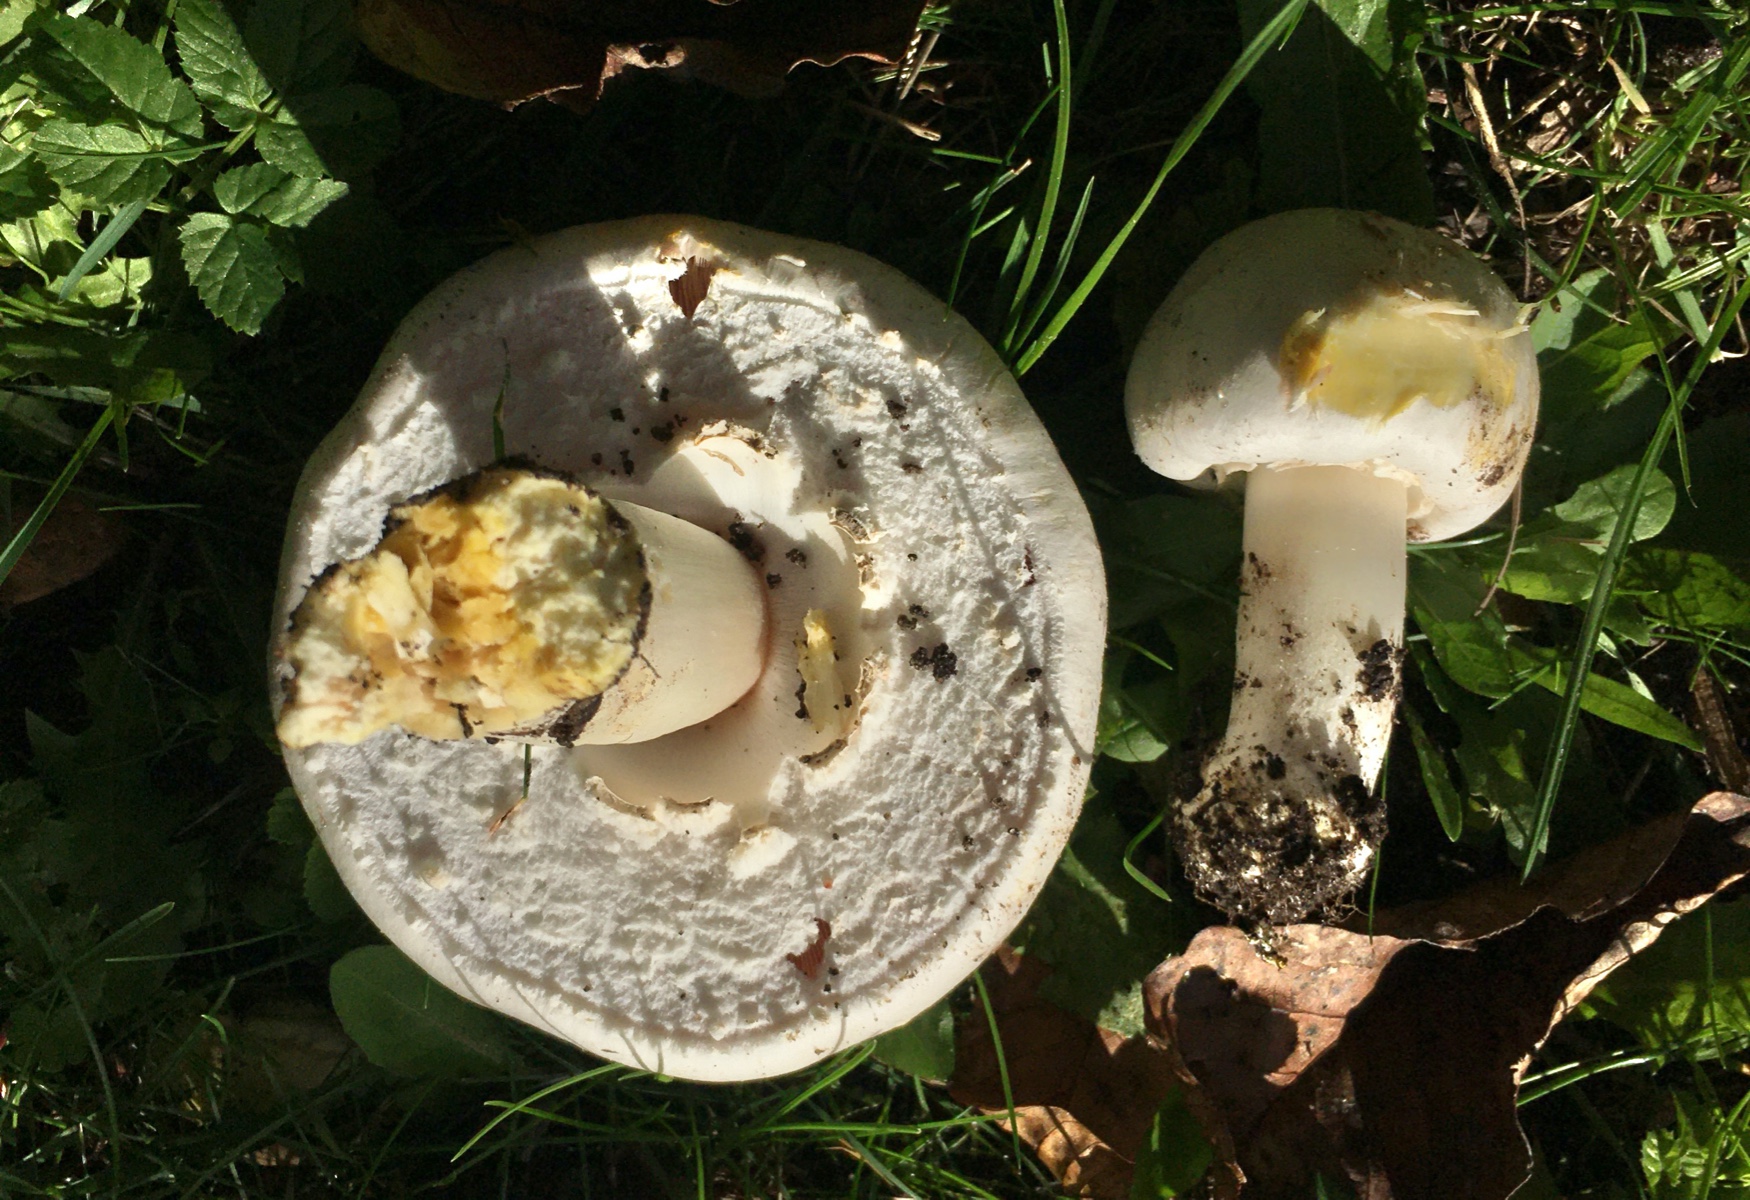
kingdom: Fungi
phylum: Basidiomycota
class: Agaricomycetes
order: Agaricales
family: Agaricaceae
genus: Agaricus
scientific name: Agaricus xanthodermus
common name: karbol-champignon
